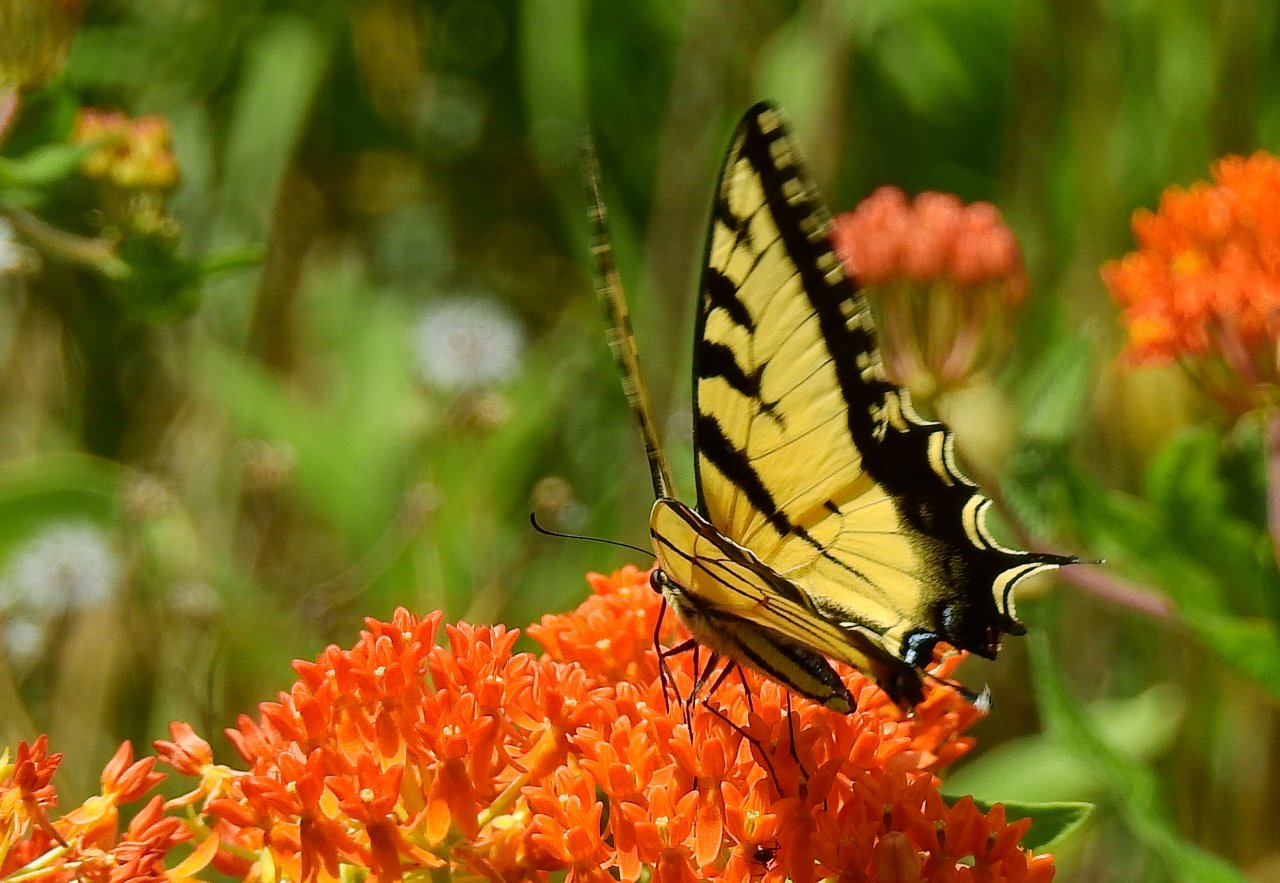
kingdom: Animalia
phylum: Arthropoda
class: Insecta
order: Lepidoptera
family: Papilionidae
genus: Pterourus
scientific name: Pterourus
